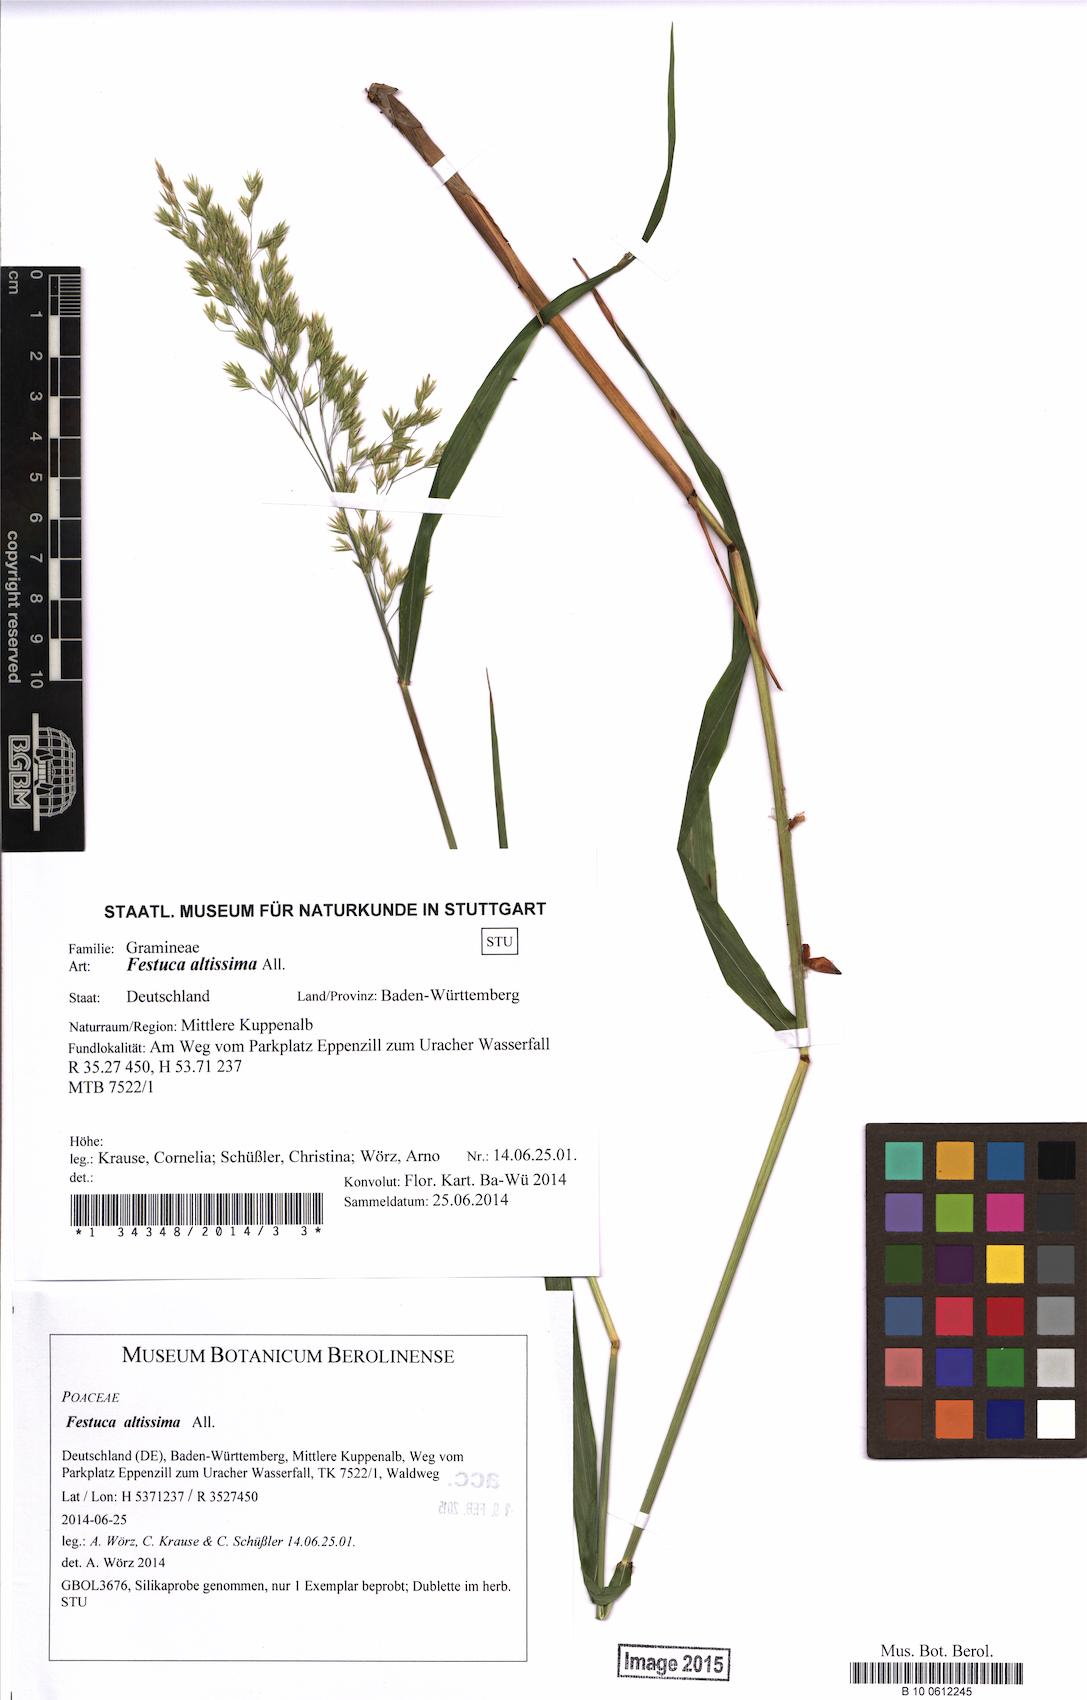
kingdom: Plantae
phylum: Tracheophyta
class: Liliopsida
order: Poales
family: Poaceae
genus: Festuca
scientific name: Festuca altissima
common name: Wood fescue
